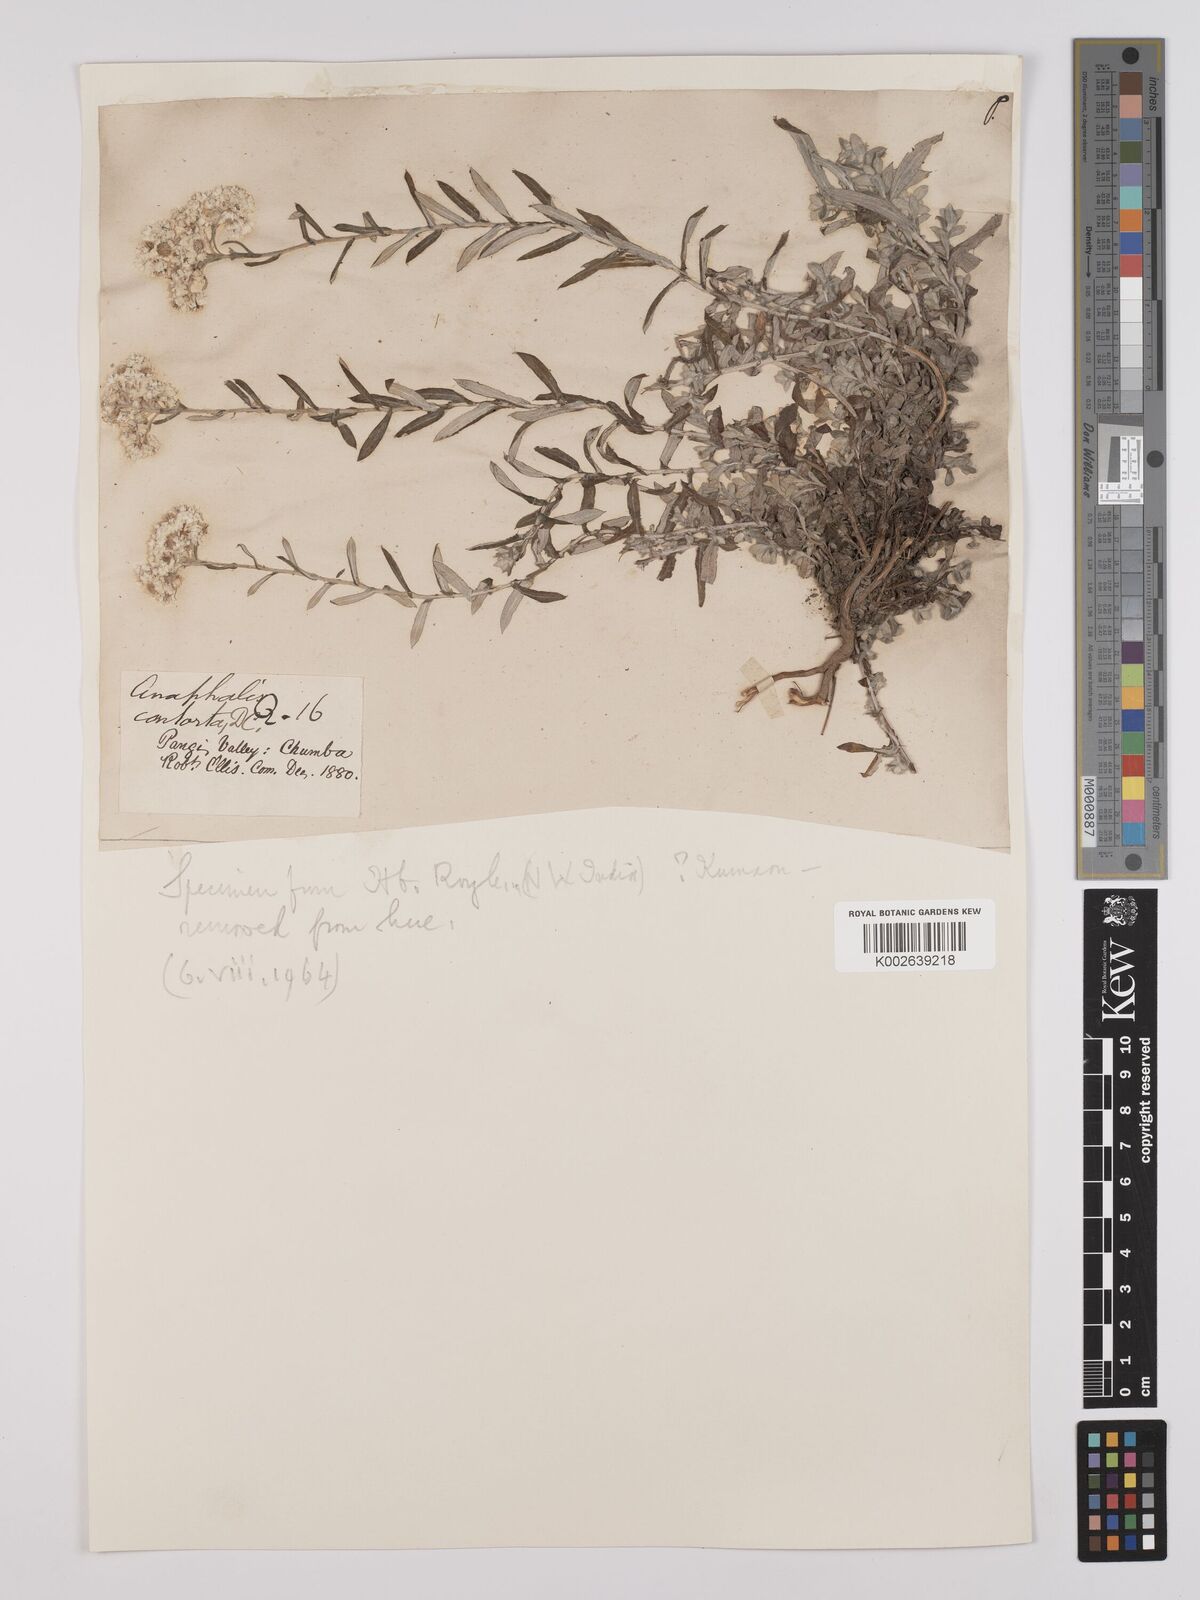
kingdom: Plantae
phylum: Tracheophyta
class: Magnoliopsida
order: Asterales
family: Asteraceae
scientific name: Asteraceae
